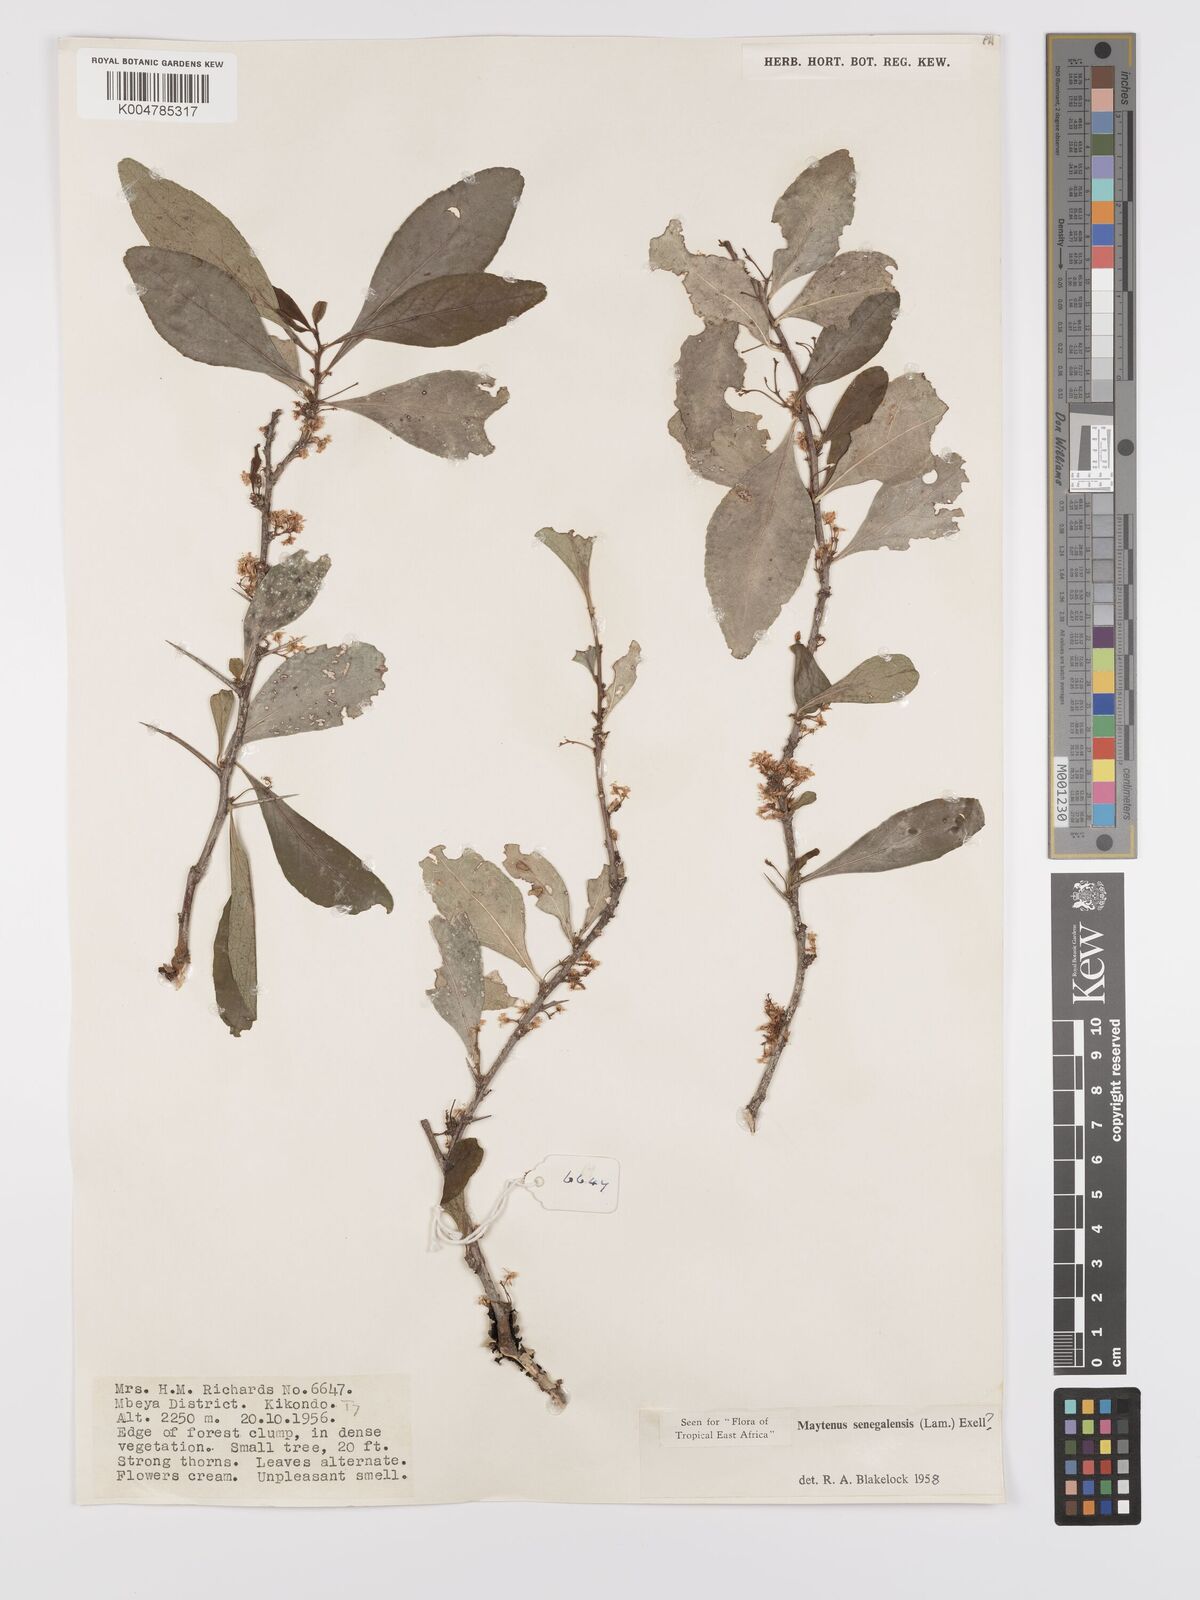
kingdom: Plantae
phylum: Tracheophyta
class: Magnoliopsida
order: Celastrales
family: Celastraceae
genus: Gymnosporia
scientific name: Gymnosporia heterophylla
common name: Angle-stem spikethorn
